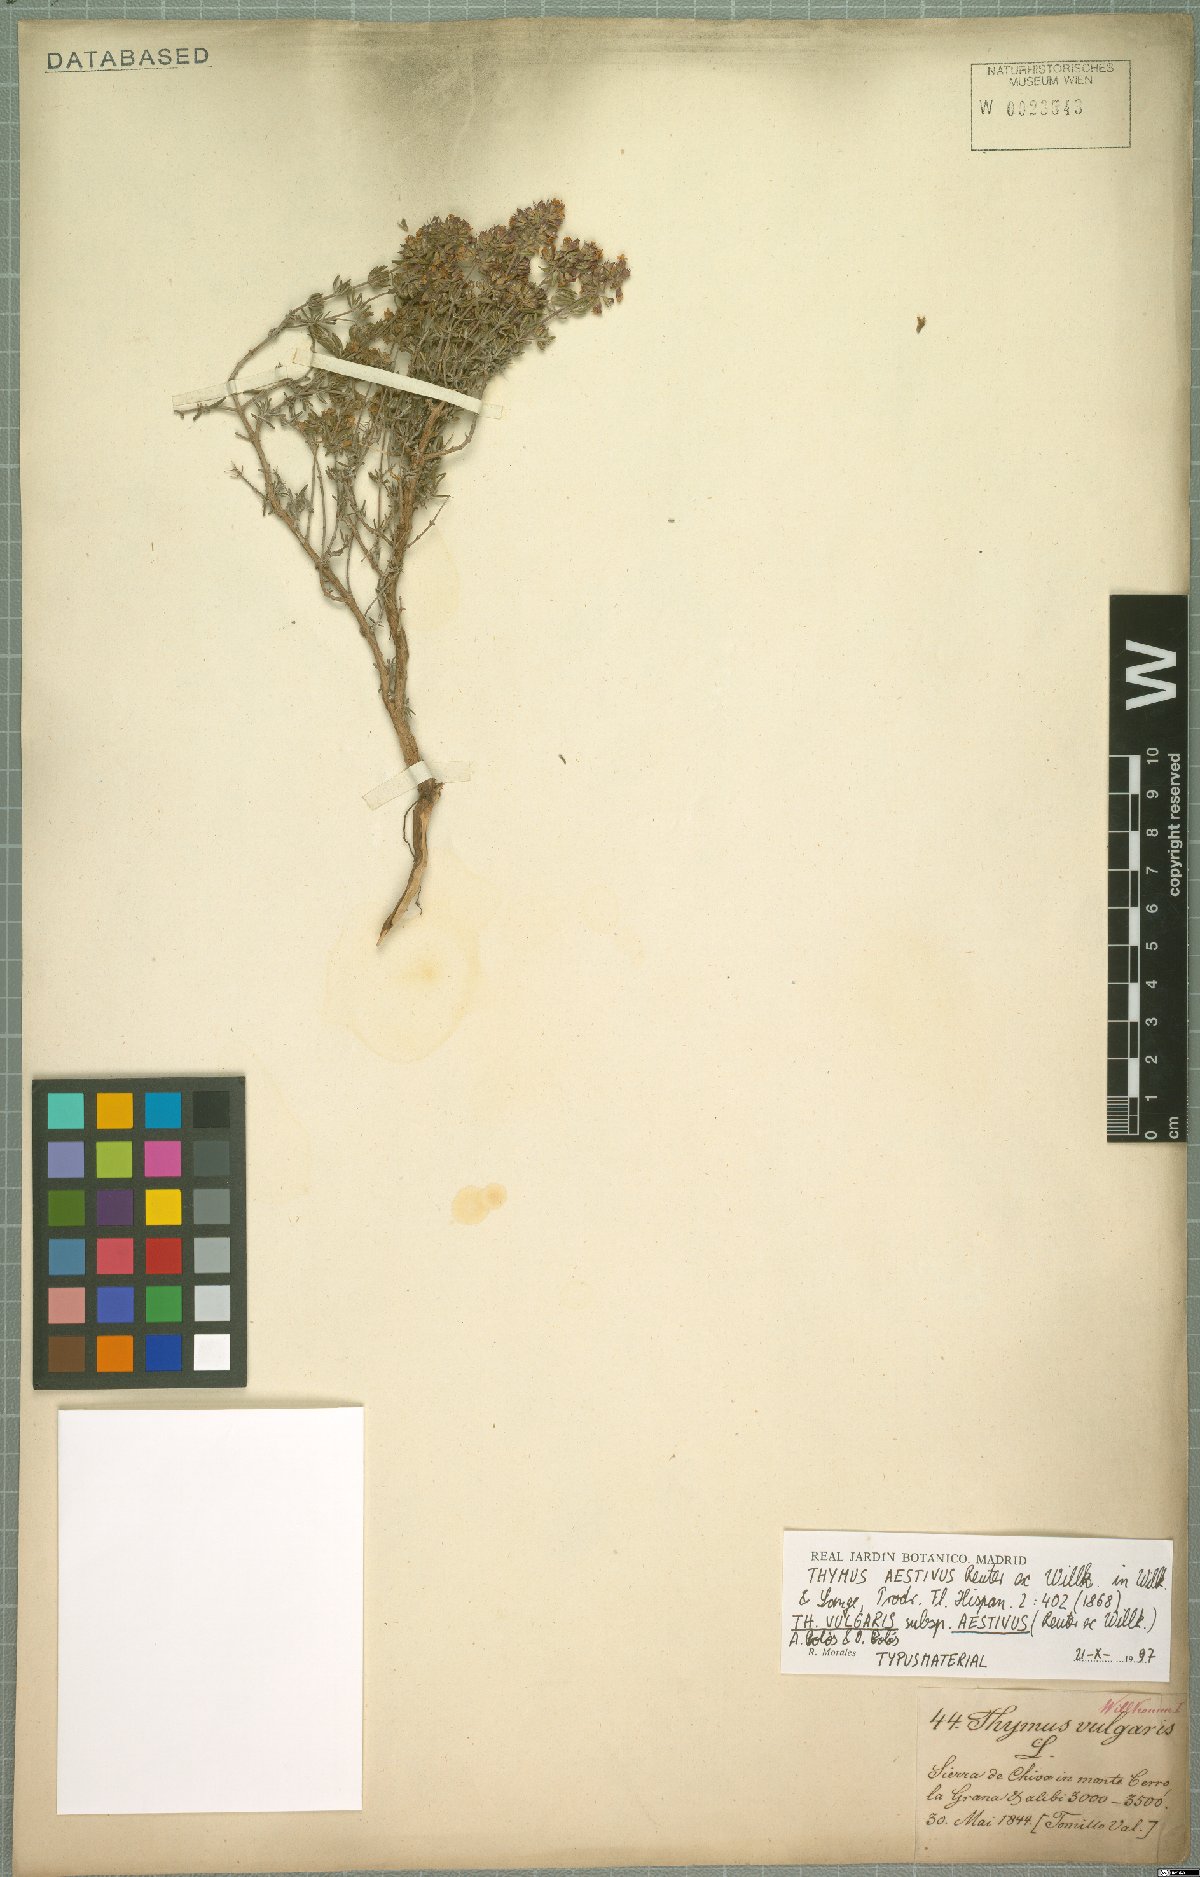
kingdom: Plantae
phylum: Tracheophyta
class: Magnoliopsida
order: Lamiales
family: Lamiaceae
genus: Thymus
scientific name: Thymus vulgaris
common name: Garden thyme
